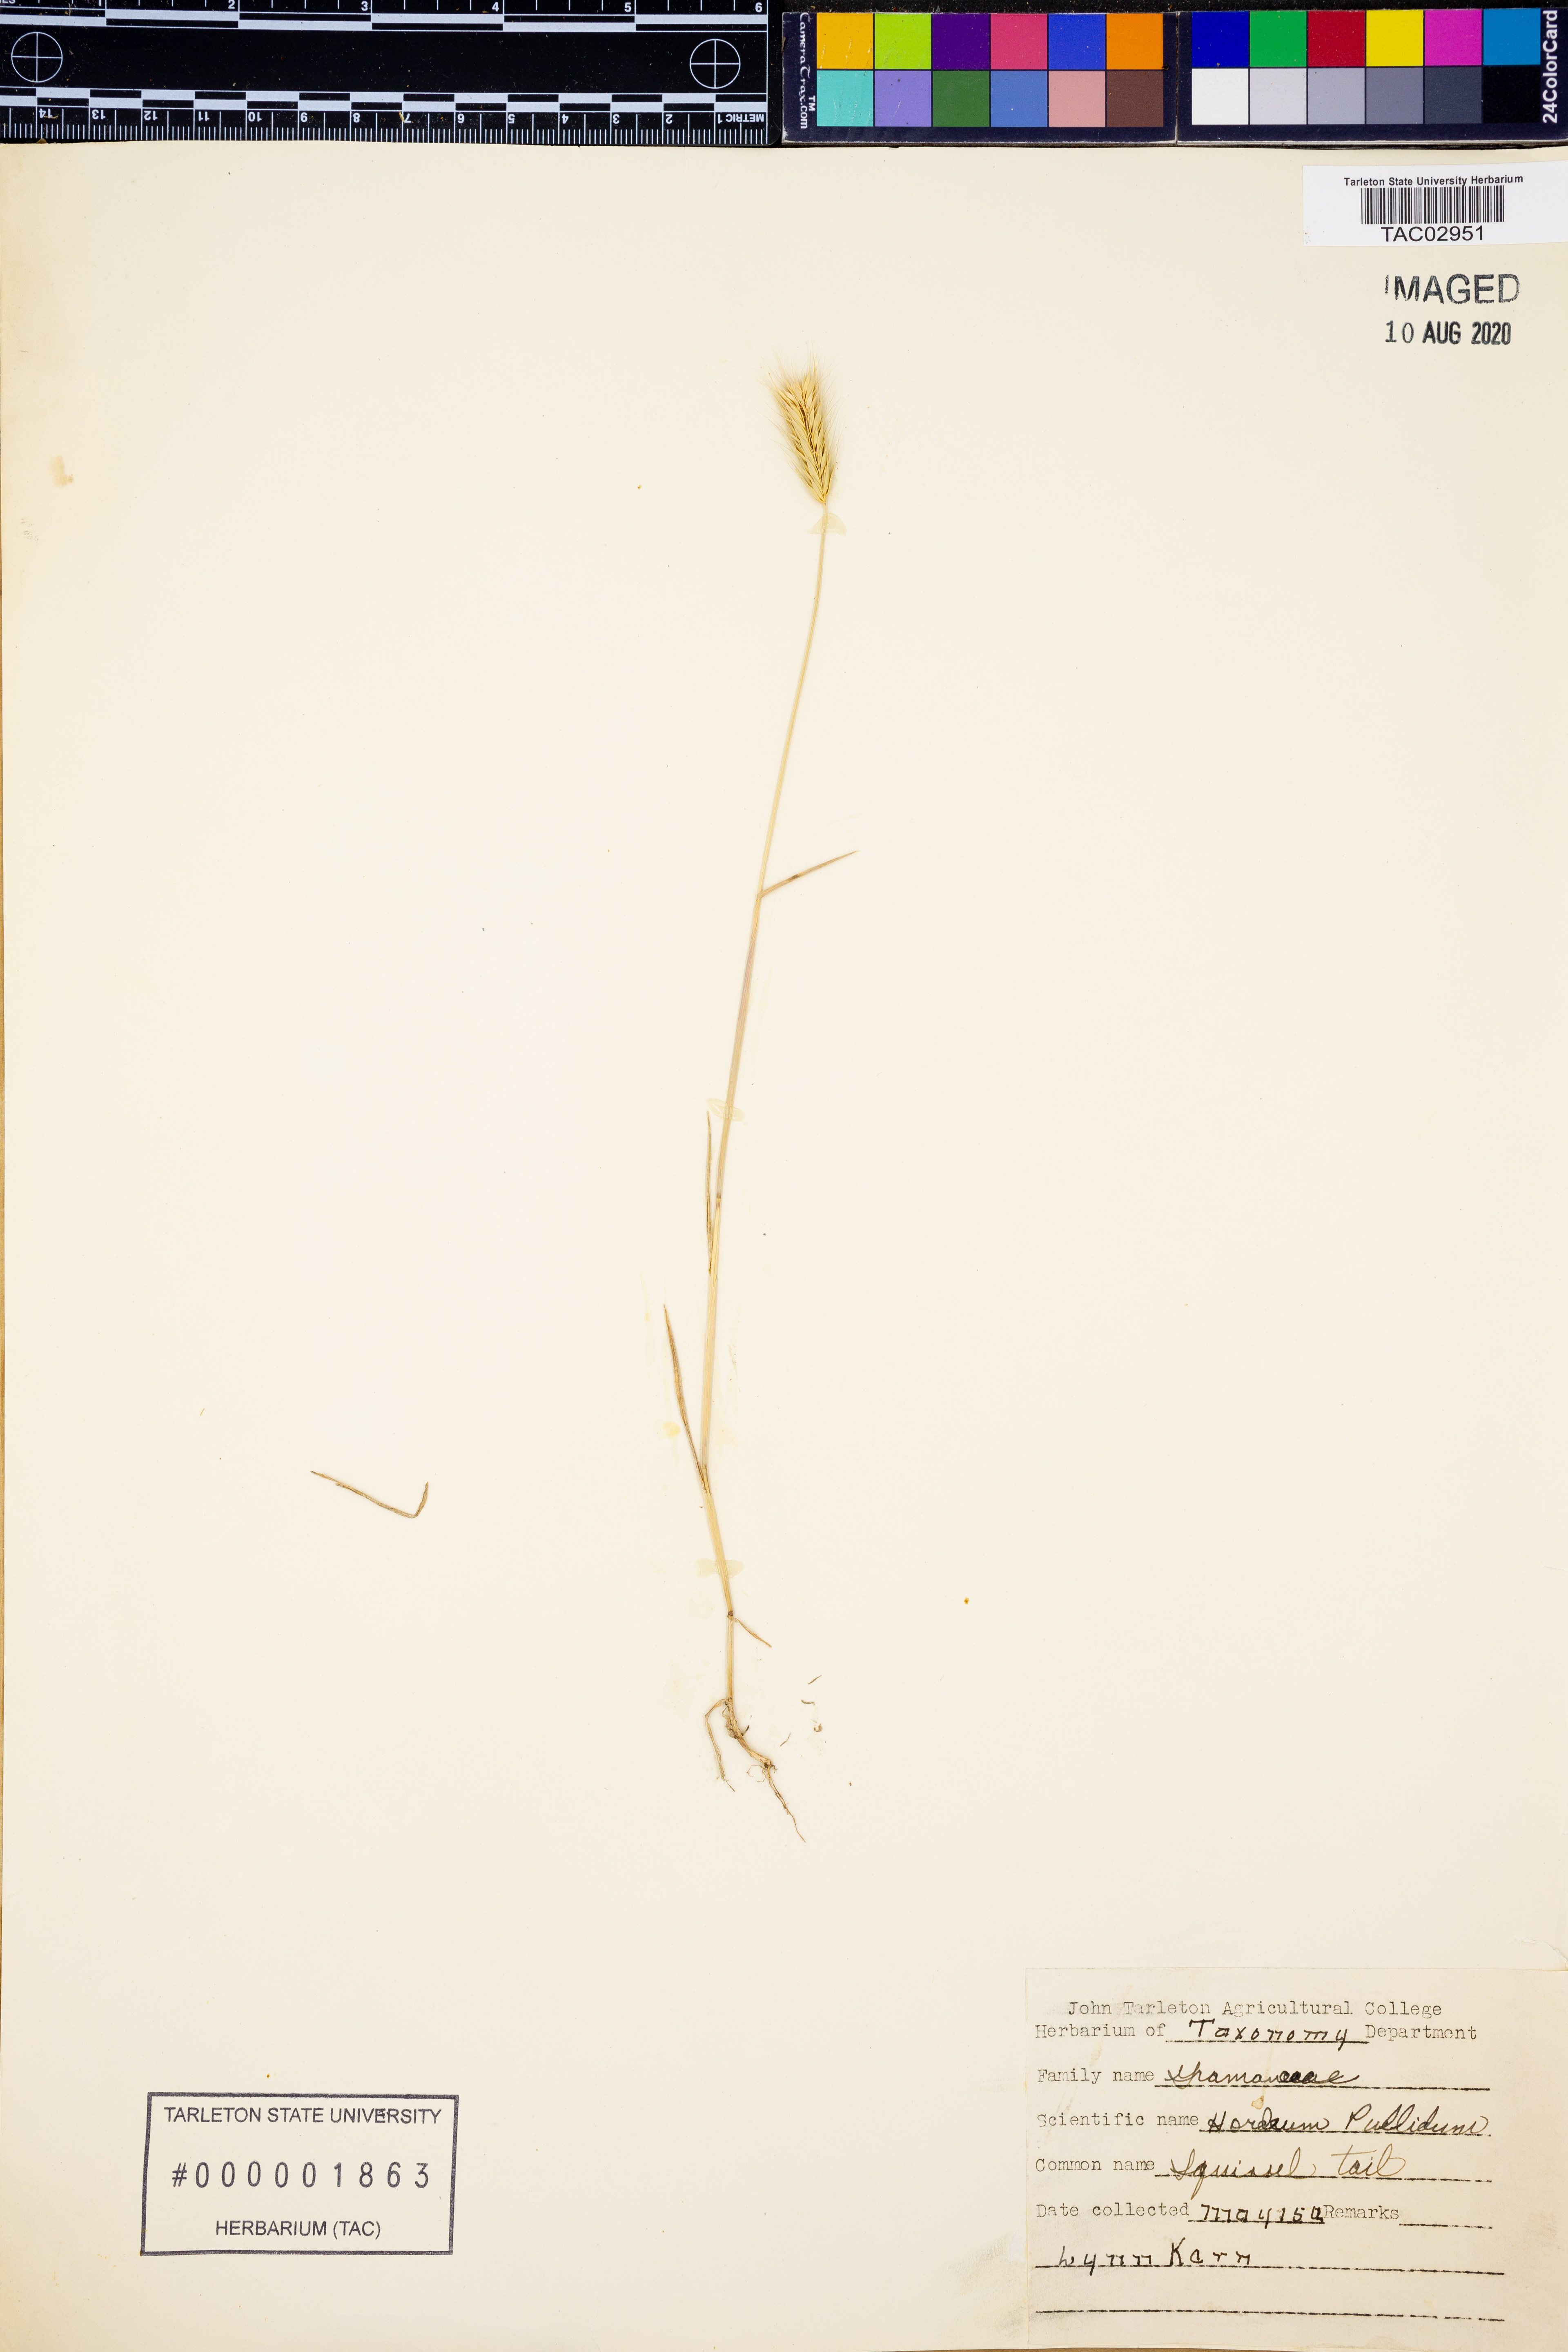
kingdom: Plantae
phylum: Tracheophyta
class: Liliopsida
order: Poales
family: Poaceae
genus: Hordeum
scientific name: Hordeum pusillum
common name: Little barley
